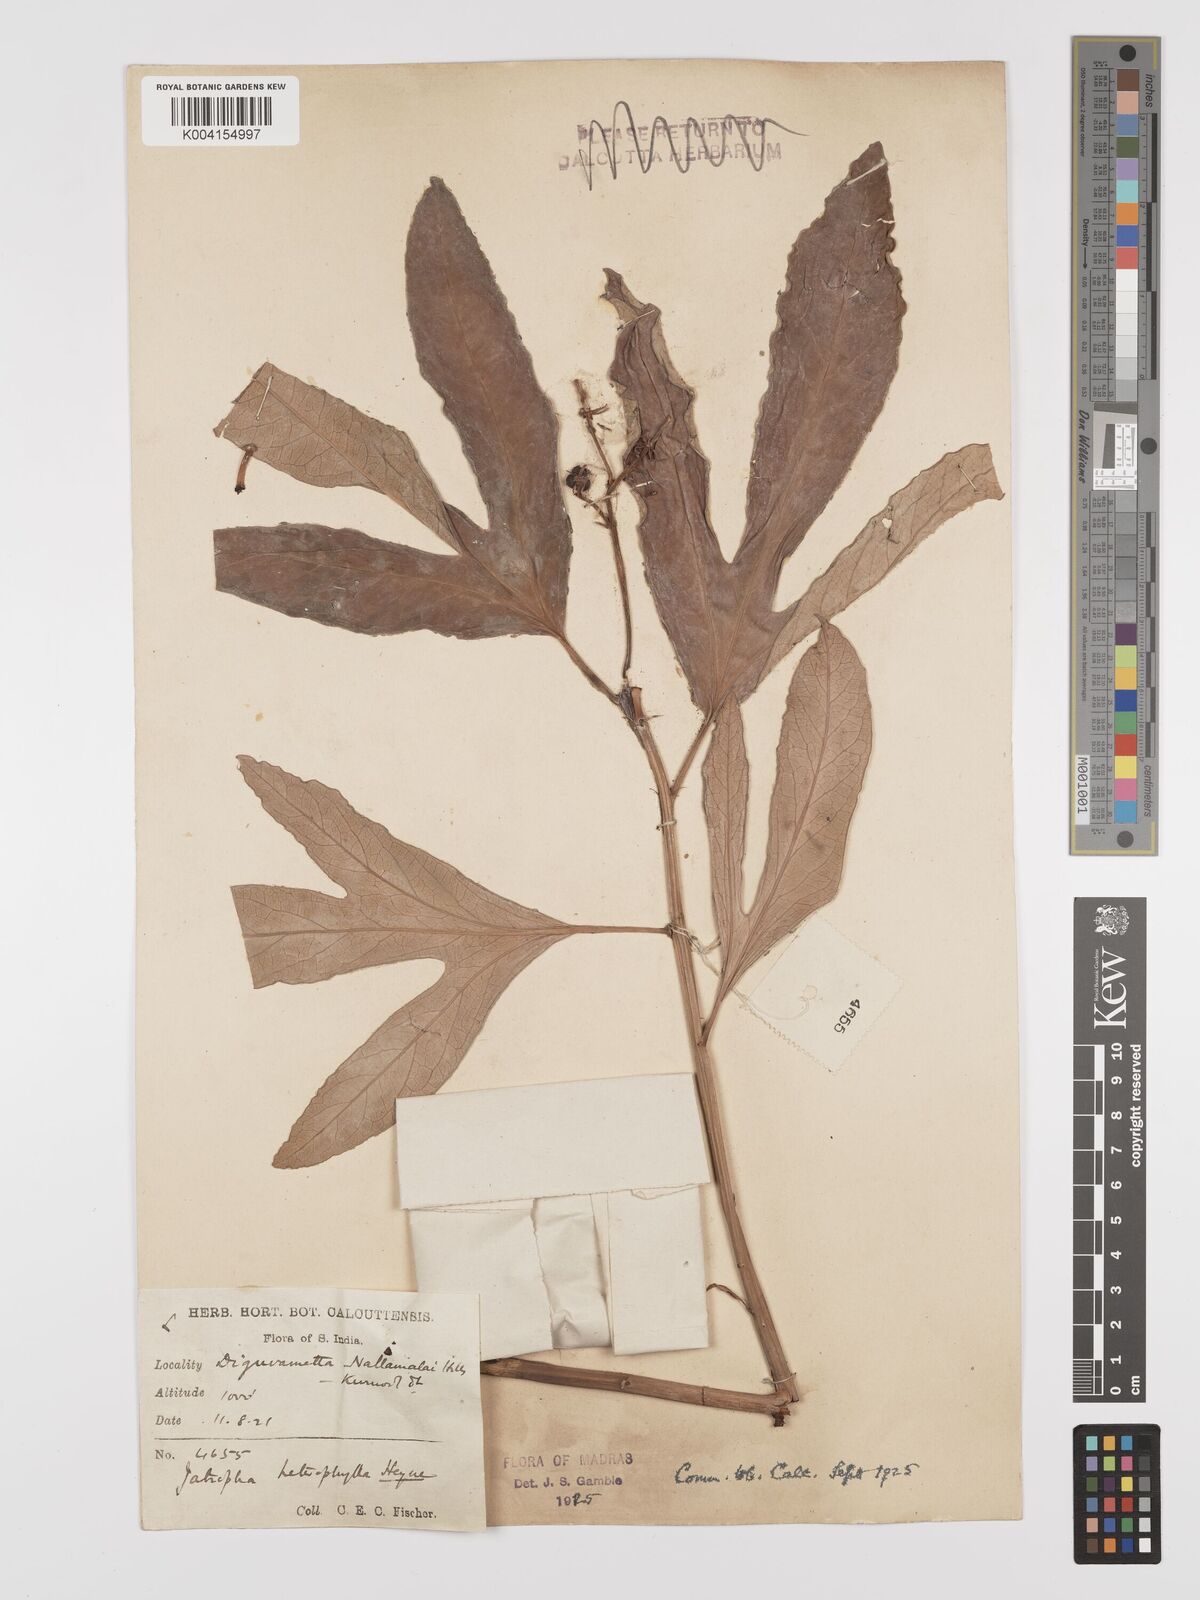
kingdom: Plantae
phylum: Tracheophyta
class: Magnoliopsida
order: Malpighiales
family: Euphorbiaceae
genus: Jatropha
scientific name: Jatropha
